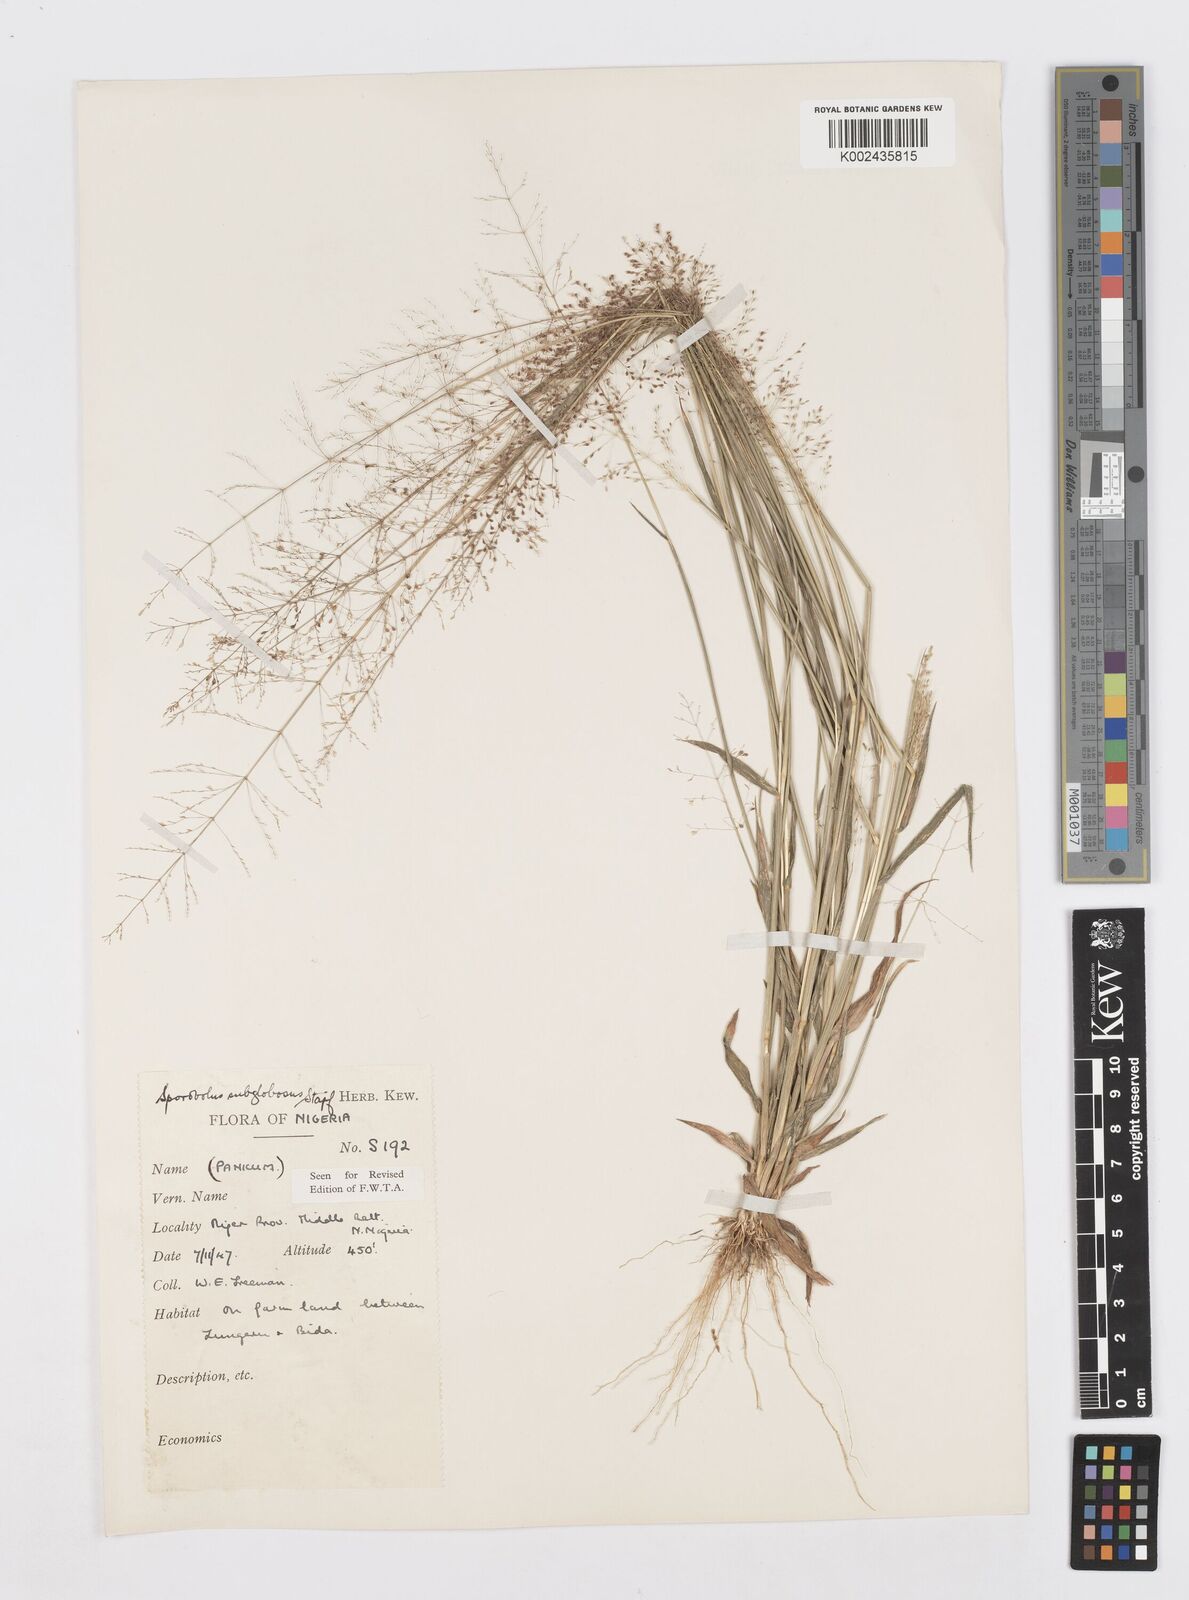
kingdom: Plantae
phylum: Tracheophyta
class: Liliopsida
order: Poales
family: Poaceae
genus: Sporobolus
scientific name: Sporobolus subglobosus
